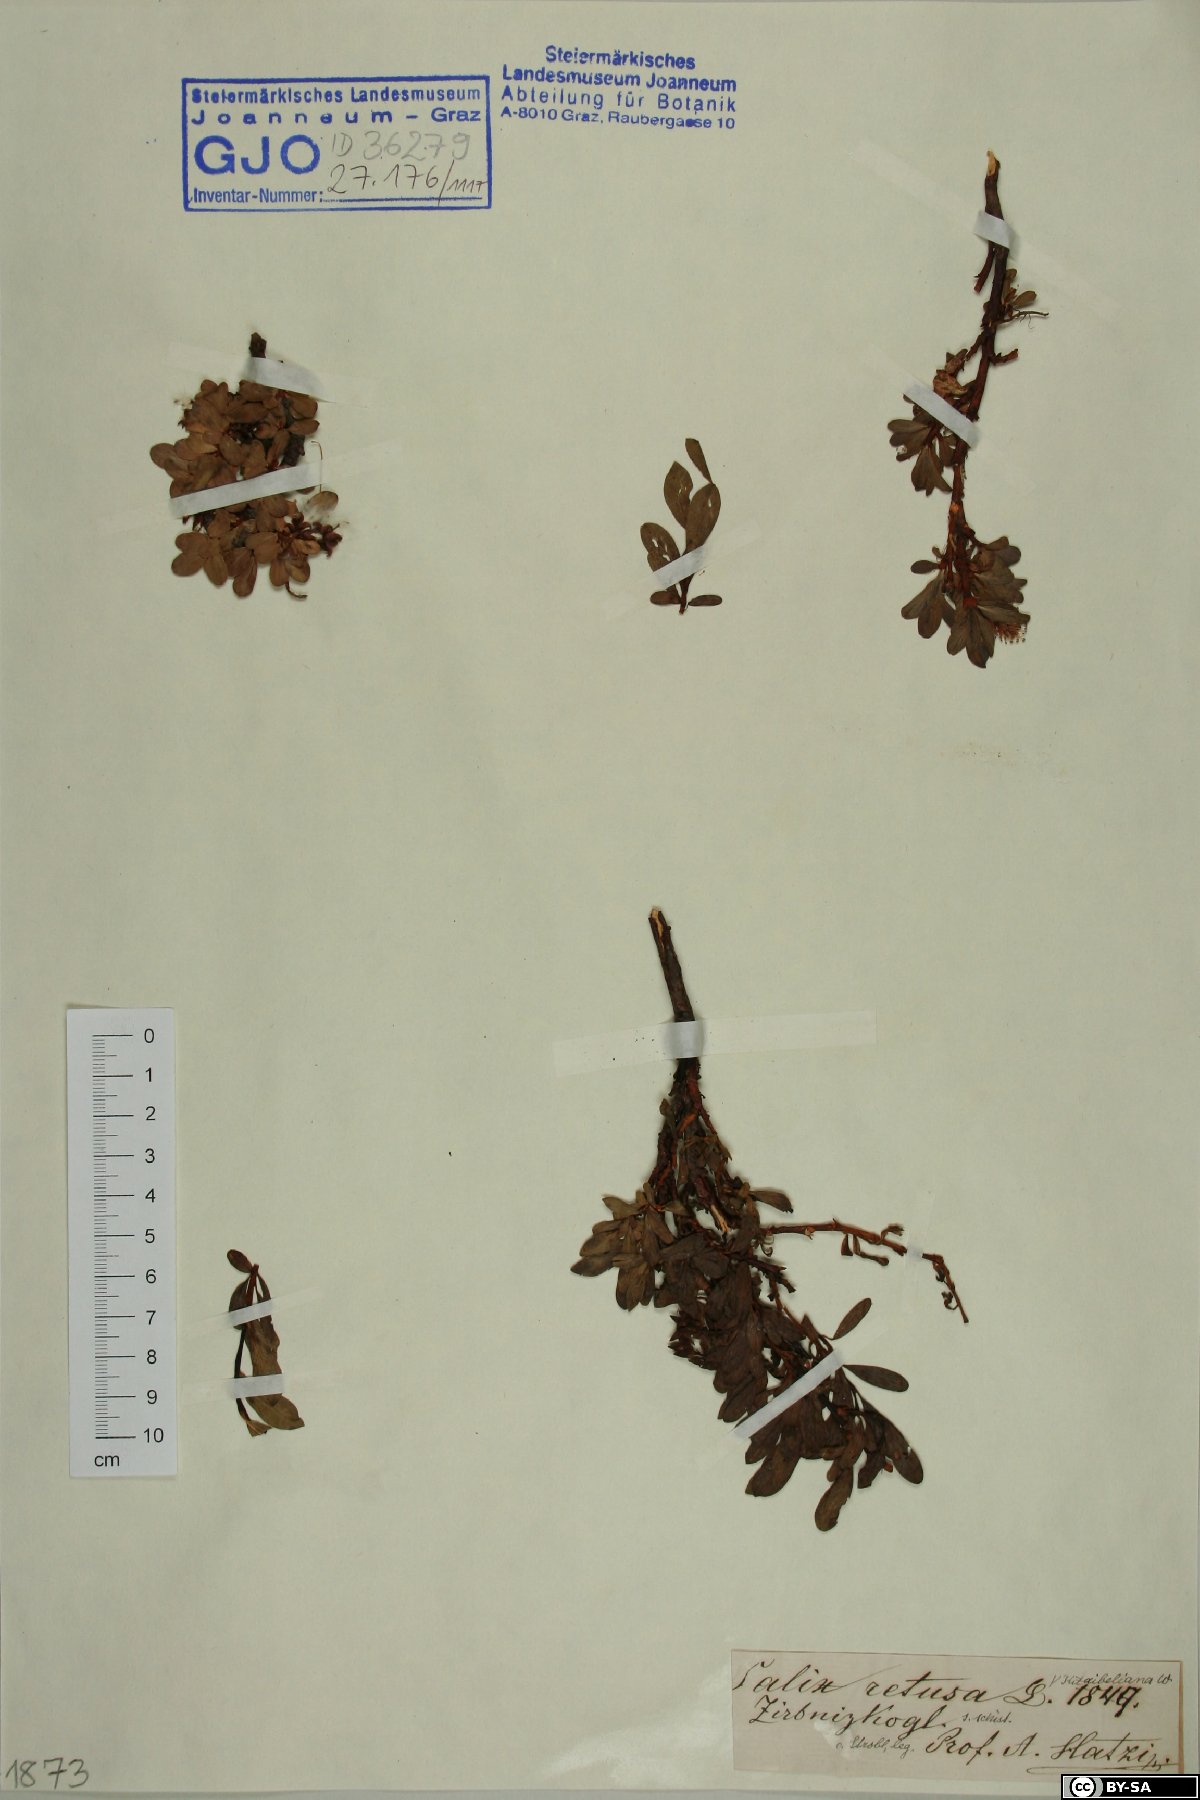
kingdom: Plantae
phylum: Tracheophyta
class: Magnoliopsida
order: Malpighiales
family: Salicaceae
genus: Salix
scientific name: Salix retusa
